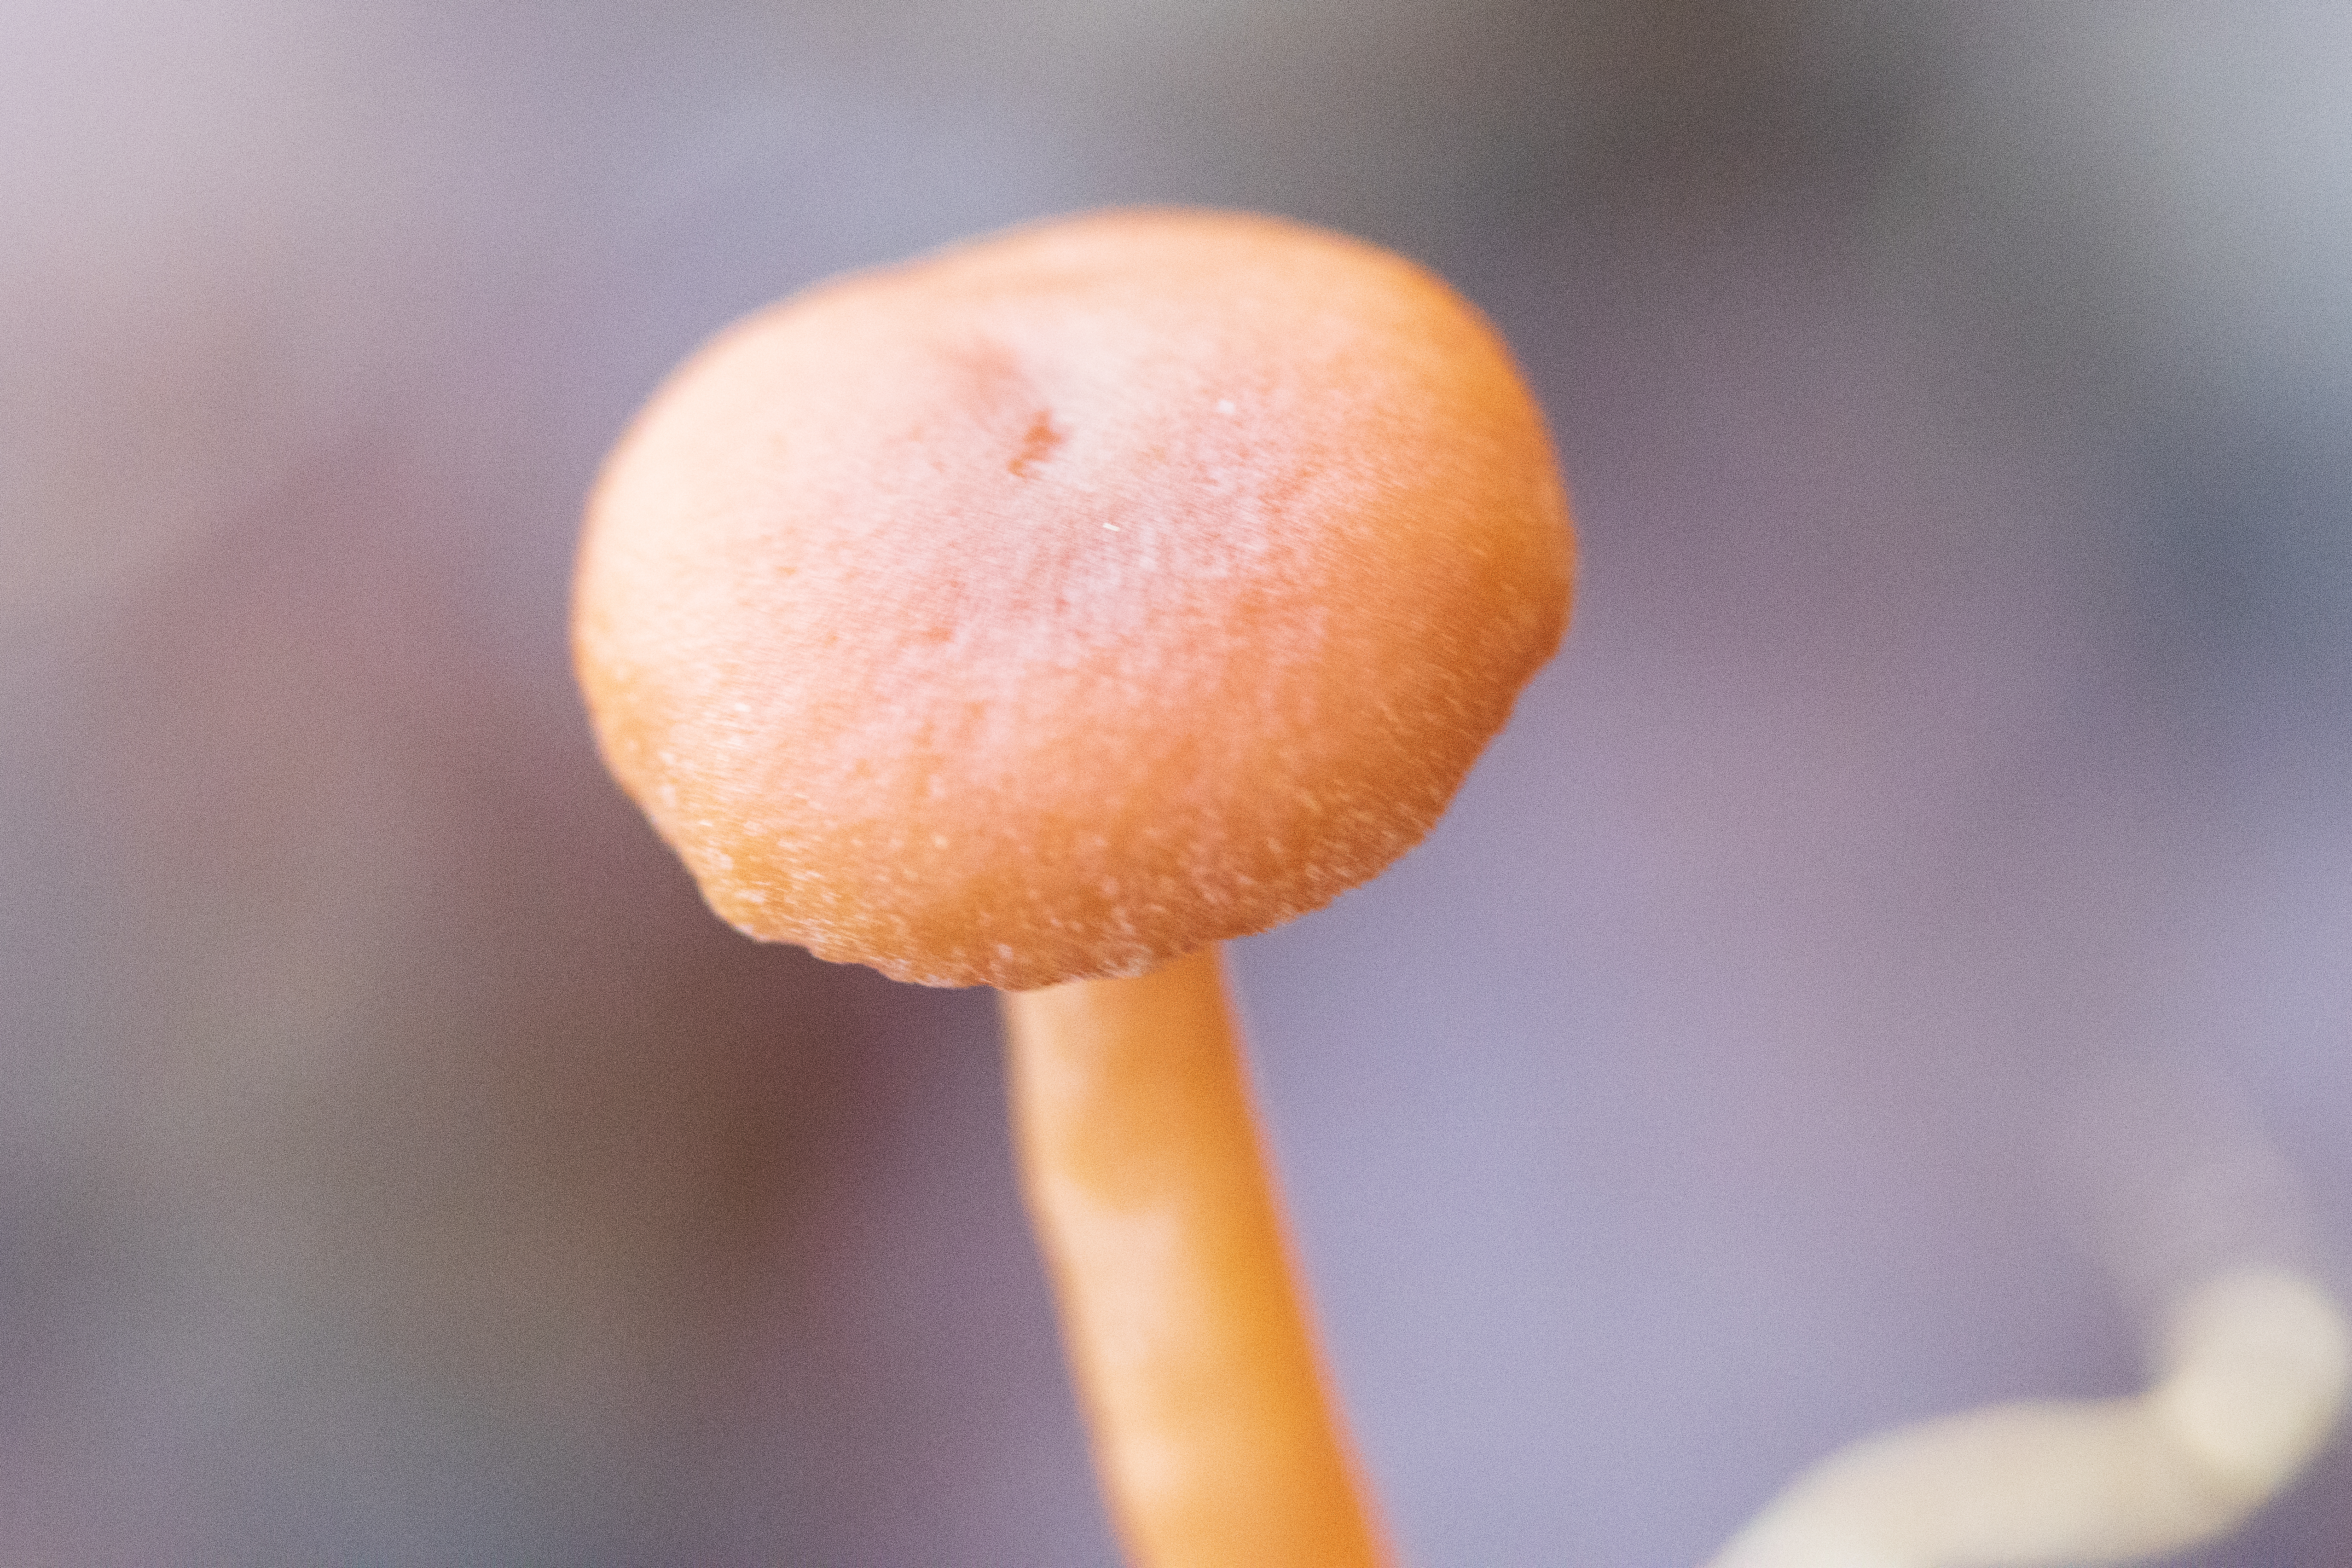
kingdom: Fungi
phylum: Basidiomycota
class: Agaricomycetes
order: Agaricales
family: Tubariaceae
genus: Tubaria
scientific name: Tubaria furfuracea
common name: Kliddet fnughat
